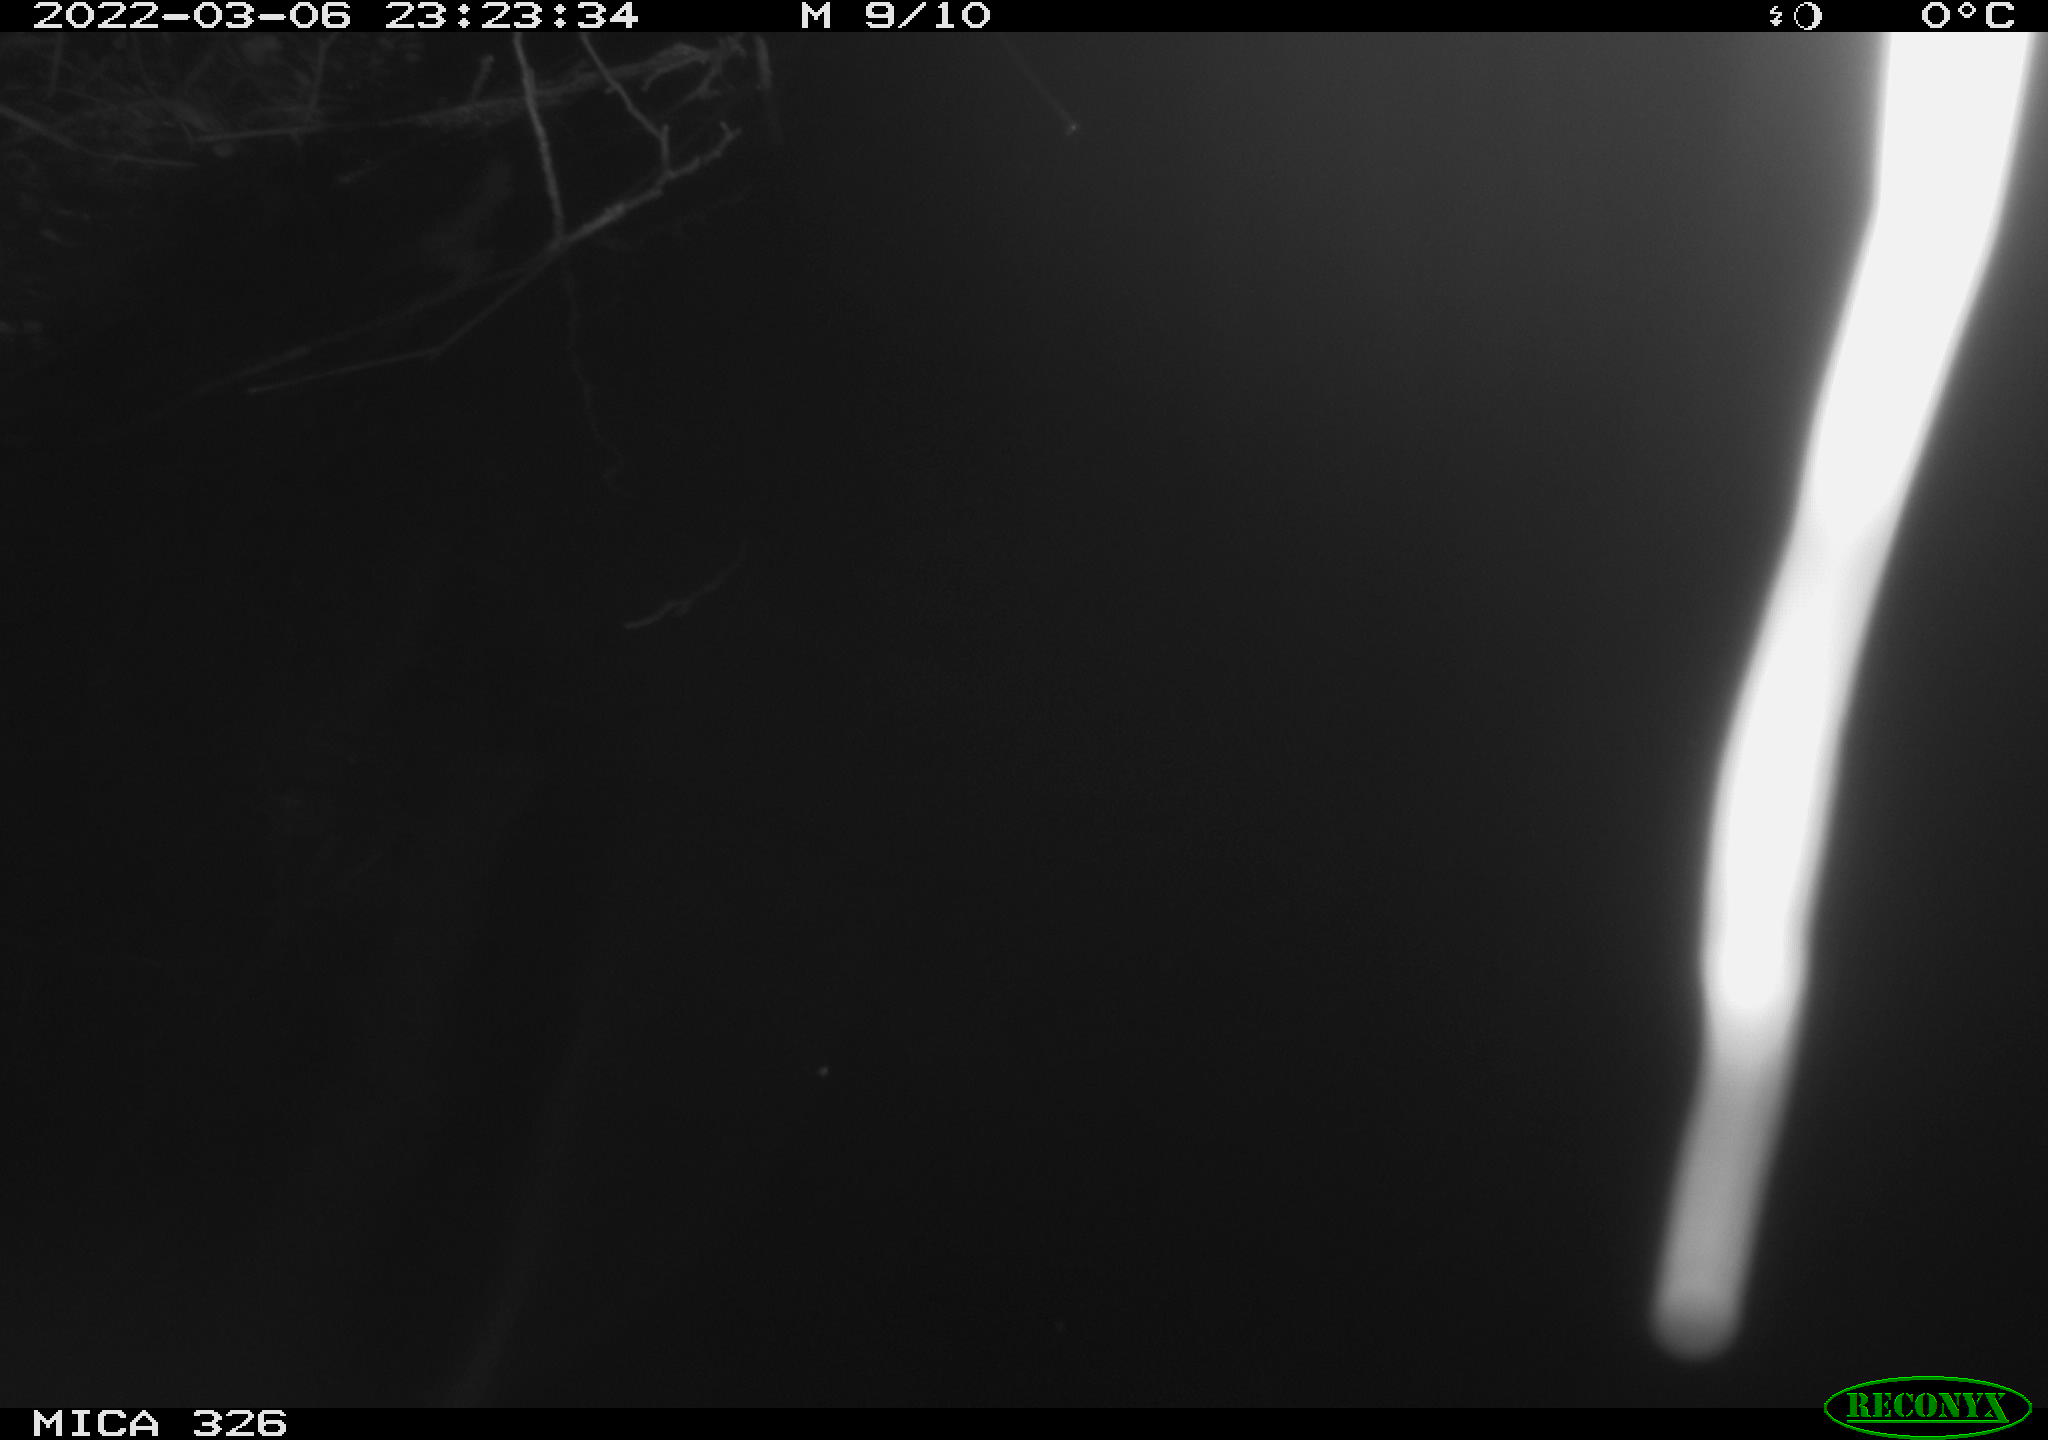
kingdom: Animalia
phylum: Chordata
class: Mammalia
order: Rodentia
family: Cricetidae
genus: Ondatra
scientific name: Ondatra zibethicus
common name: Muskrat
